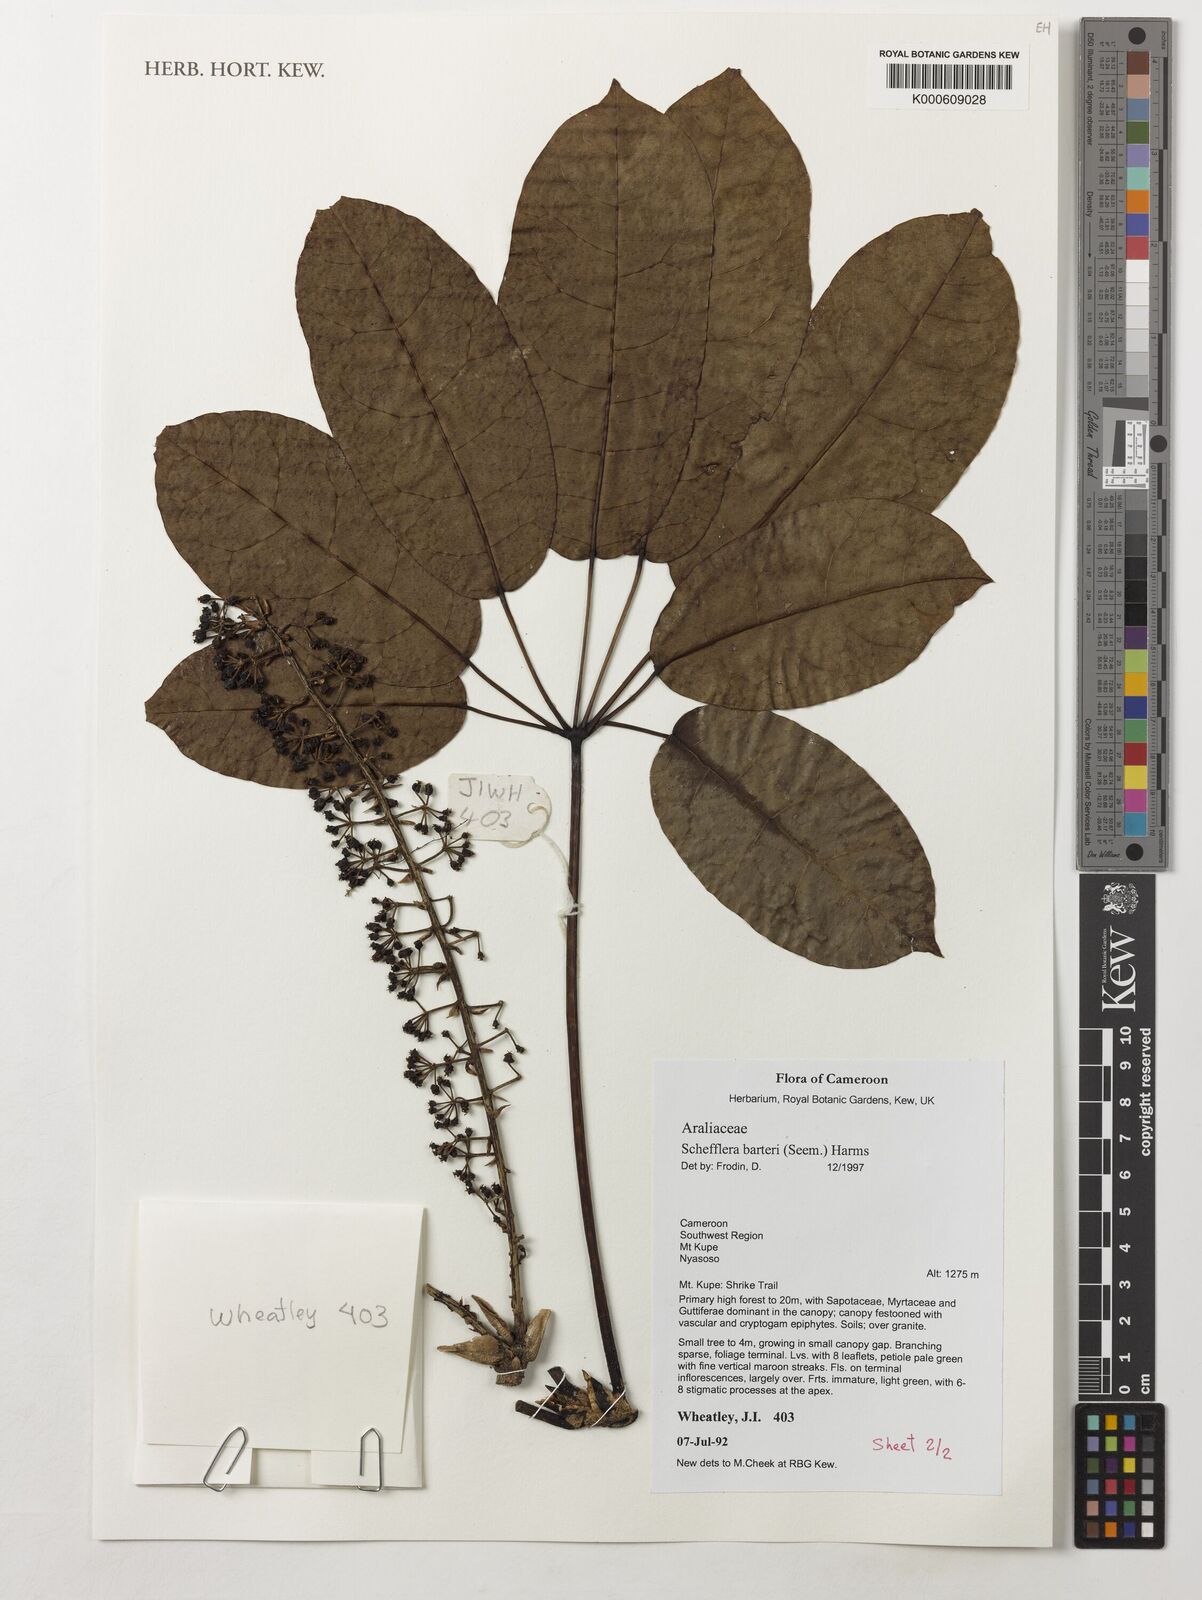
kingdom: Plantae
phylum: Tracheophyta
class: Magnoliopsida
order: Apiales
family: Araliaceae
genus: Astropanax
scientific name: Astropanax barteri
